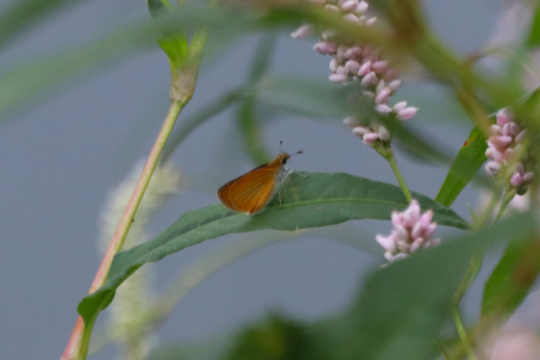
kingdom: Animalia
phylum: Arthropoda
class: Insecta
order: Lepidoptera
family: Hesperiidae
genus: Ancyloxypha
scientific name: Ancyloxypha numitor
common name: Least Skipper
